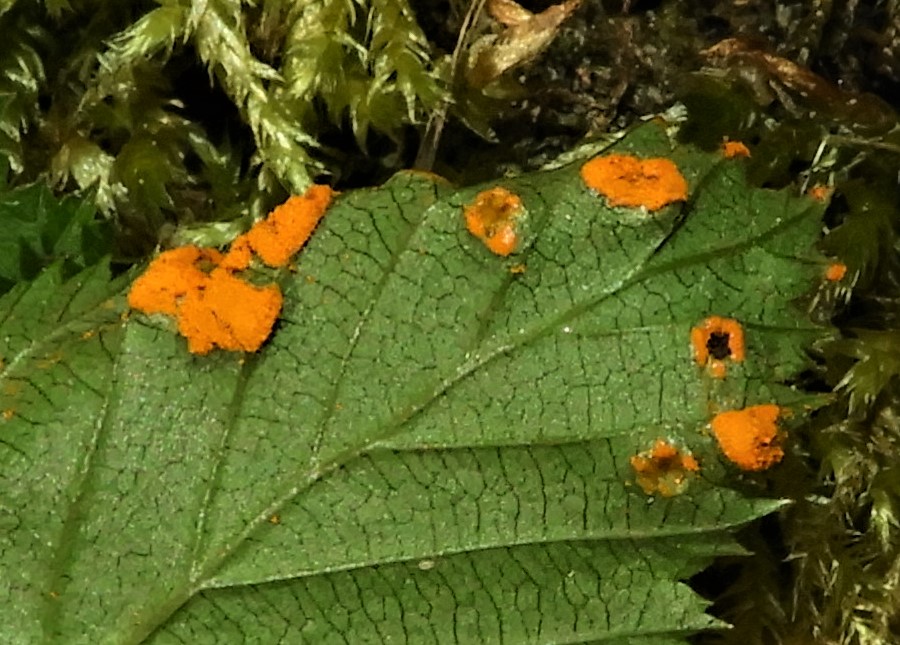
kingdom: Fungi
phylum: Basidiomycota
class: Pucciniomycetes
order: Pucciniales
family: Raveneliaceae
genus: Triphragmium
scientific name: Triphragmium ulmariae
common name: almindelig mjødurtrust
